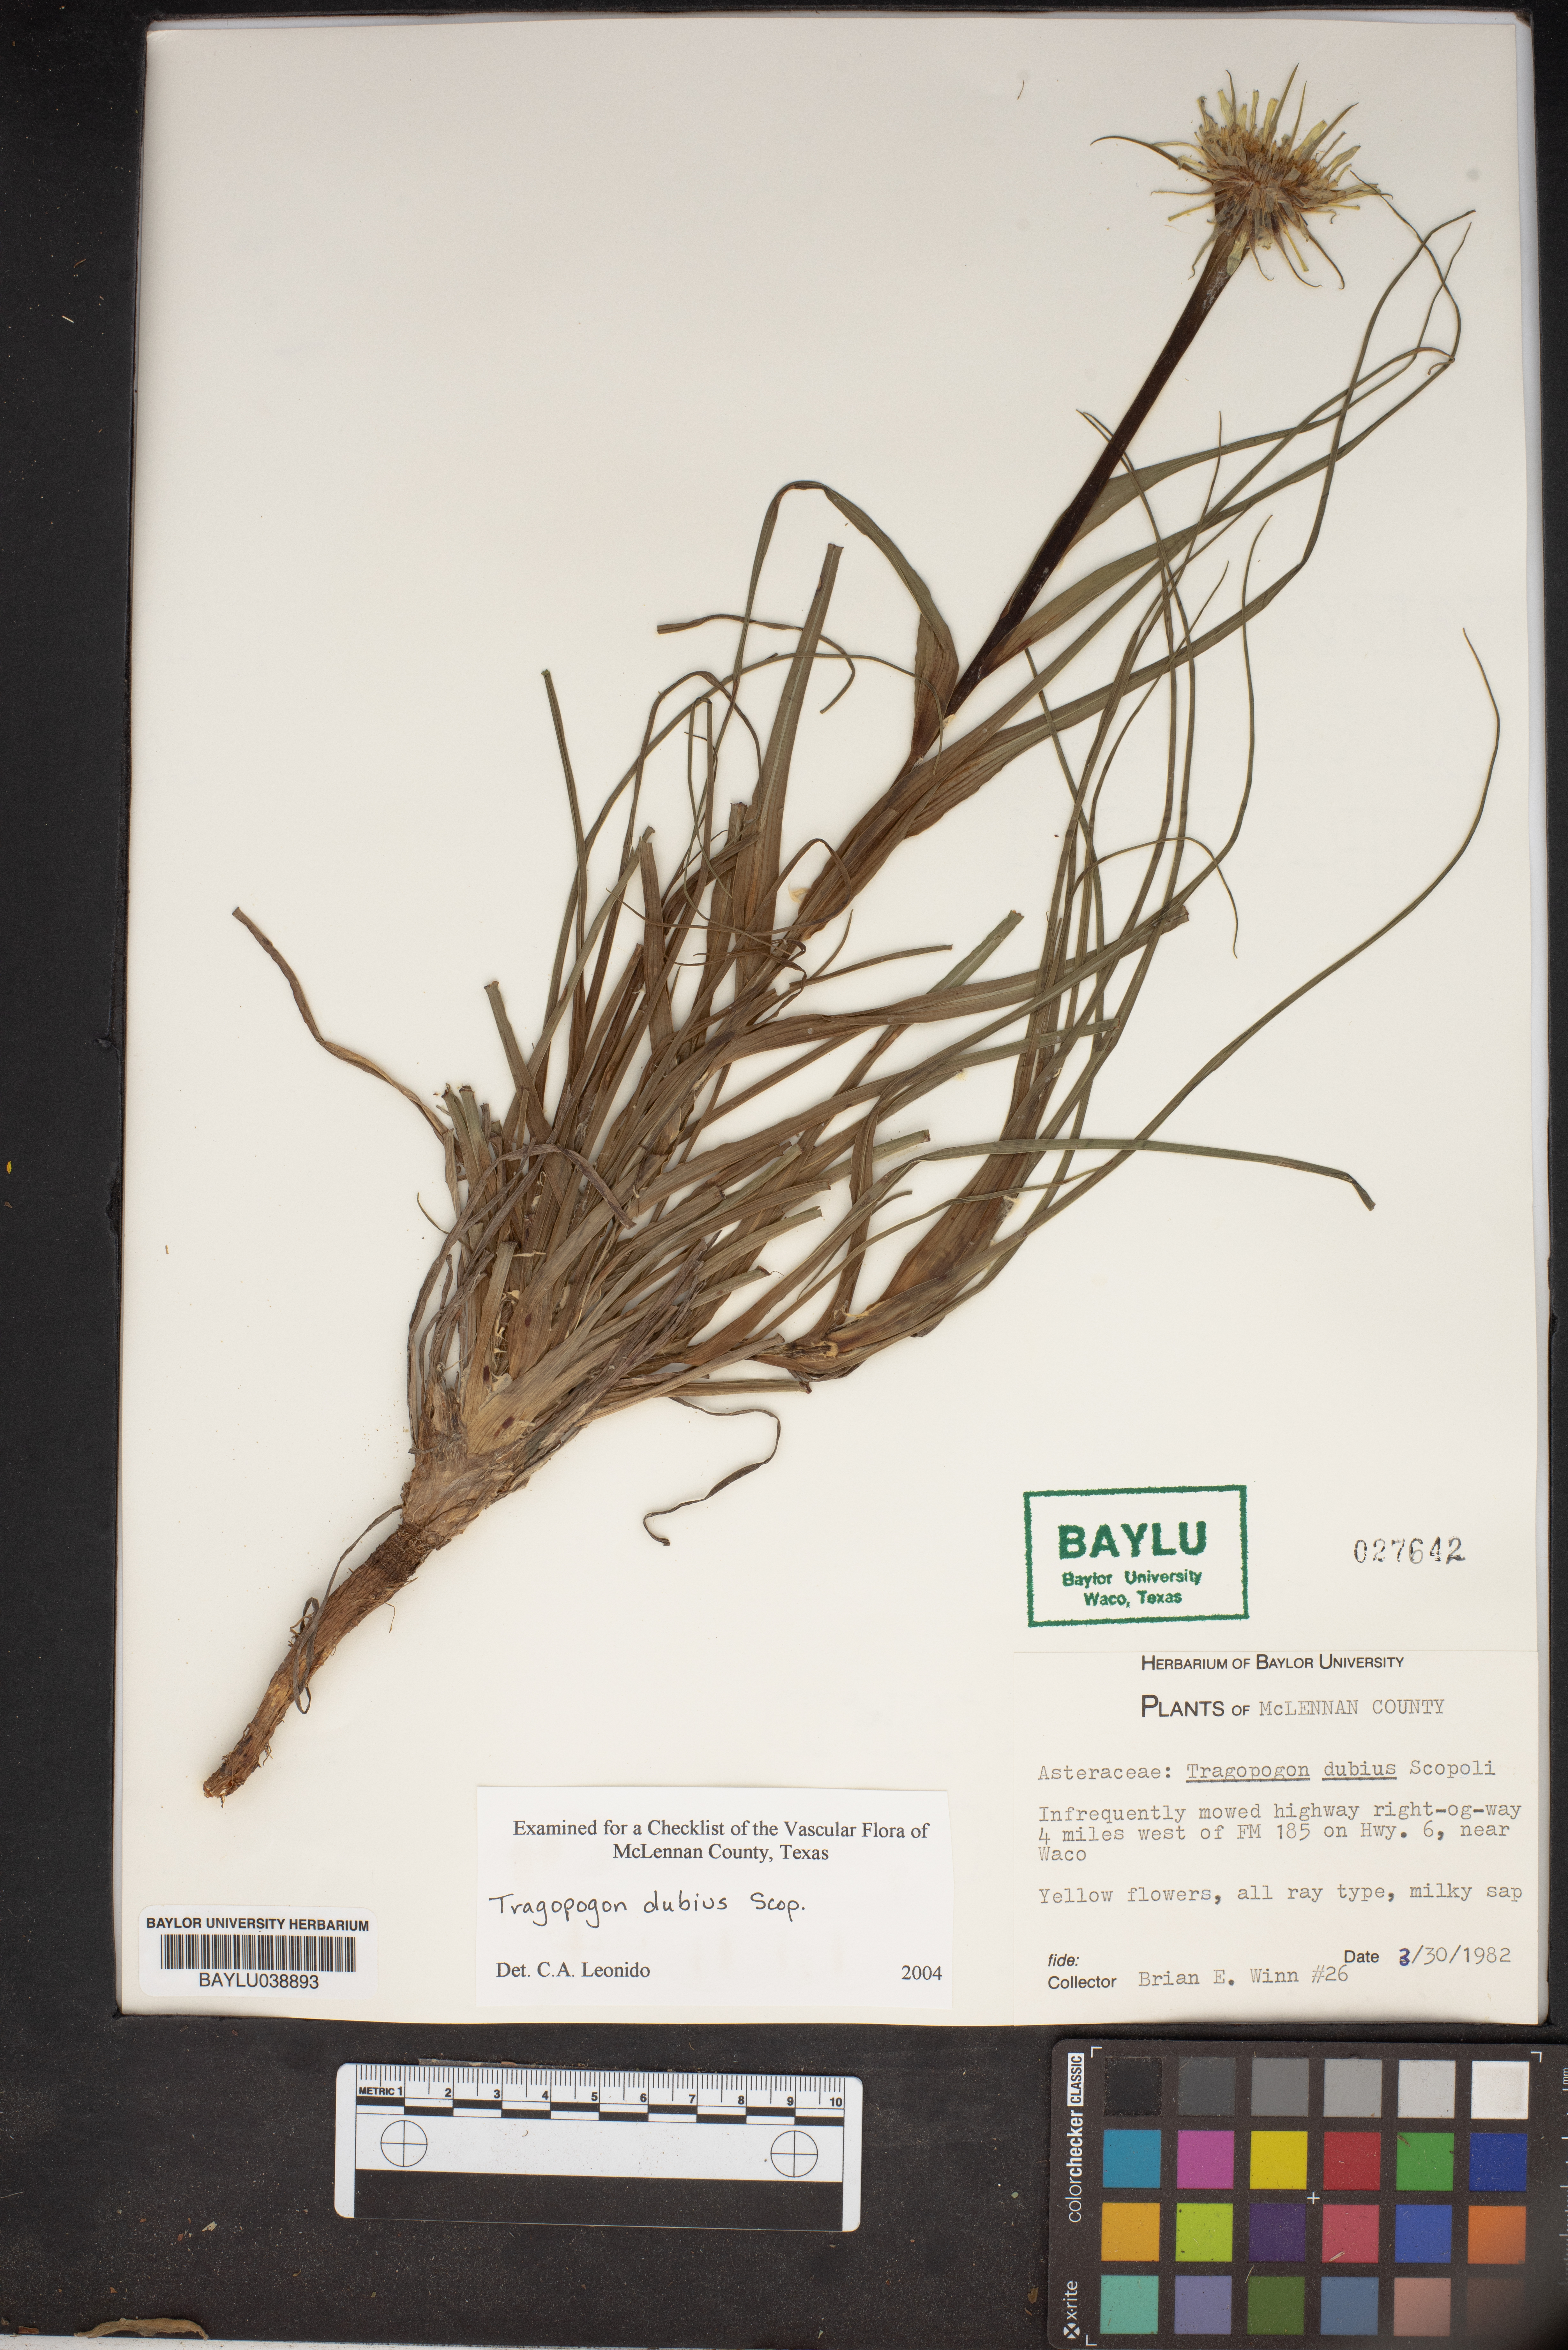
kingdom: Plantae
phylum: Tracheophyta
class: Magnoliopsida
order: Asterales
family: Asteraceae
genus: Tragopogon
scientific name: Tragopogon dubius
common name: Yellow salsify
